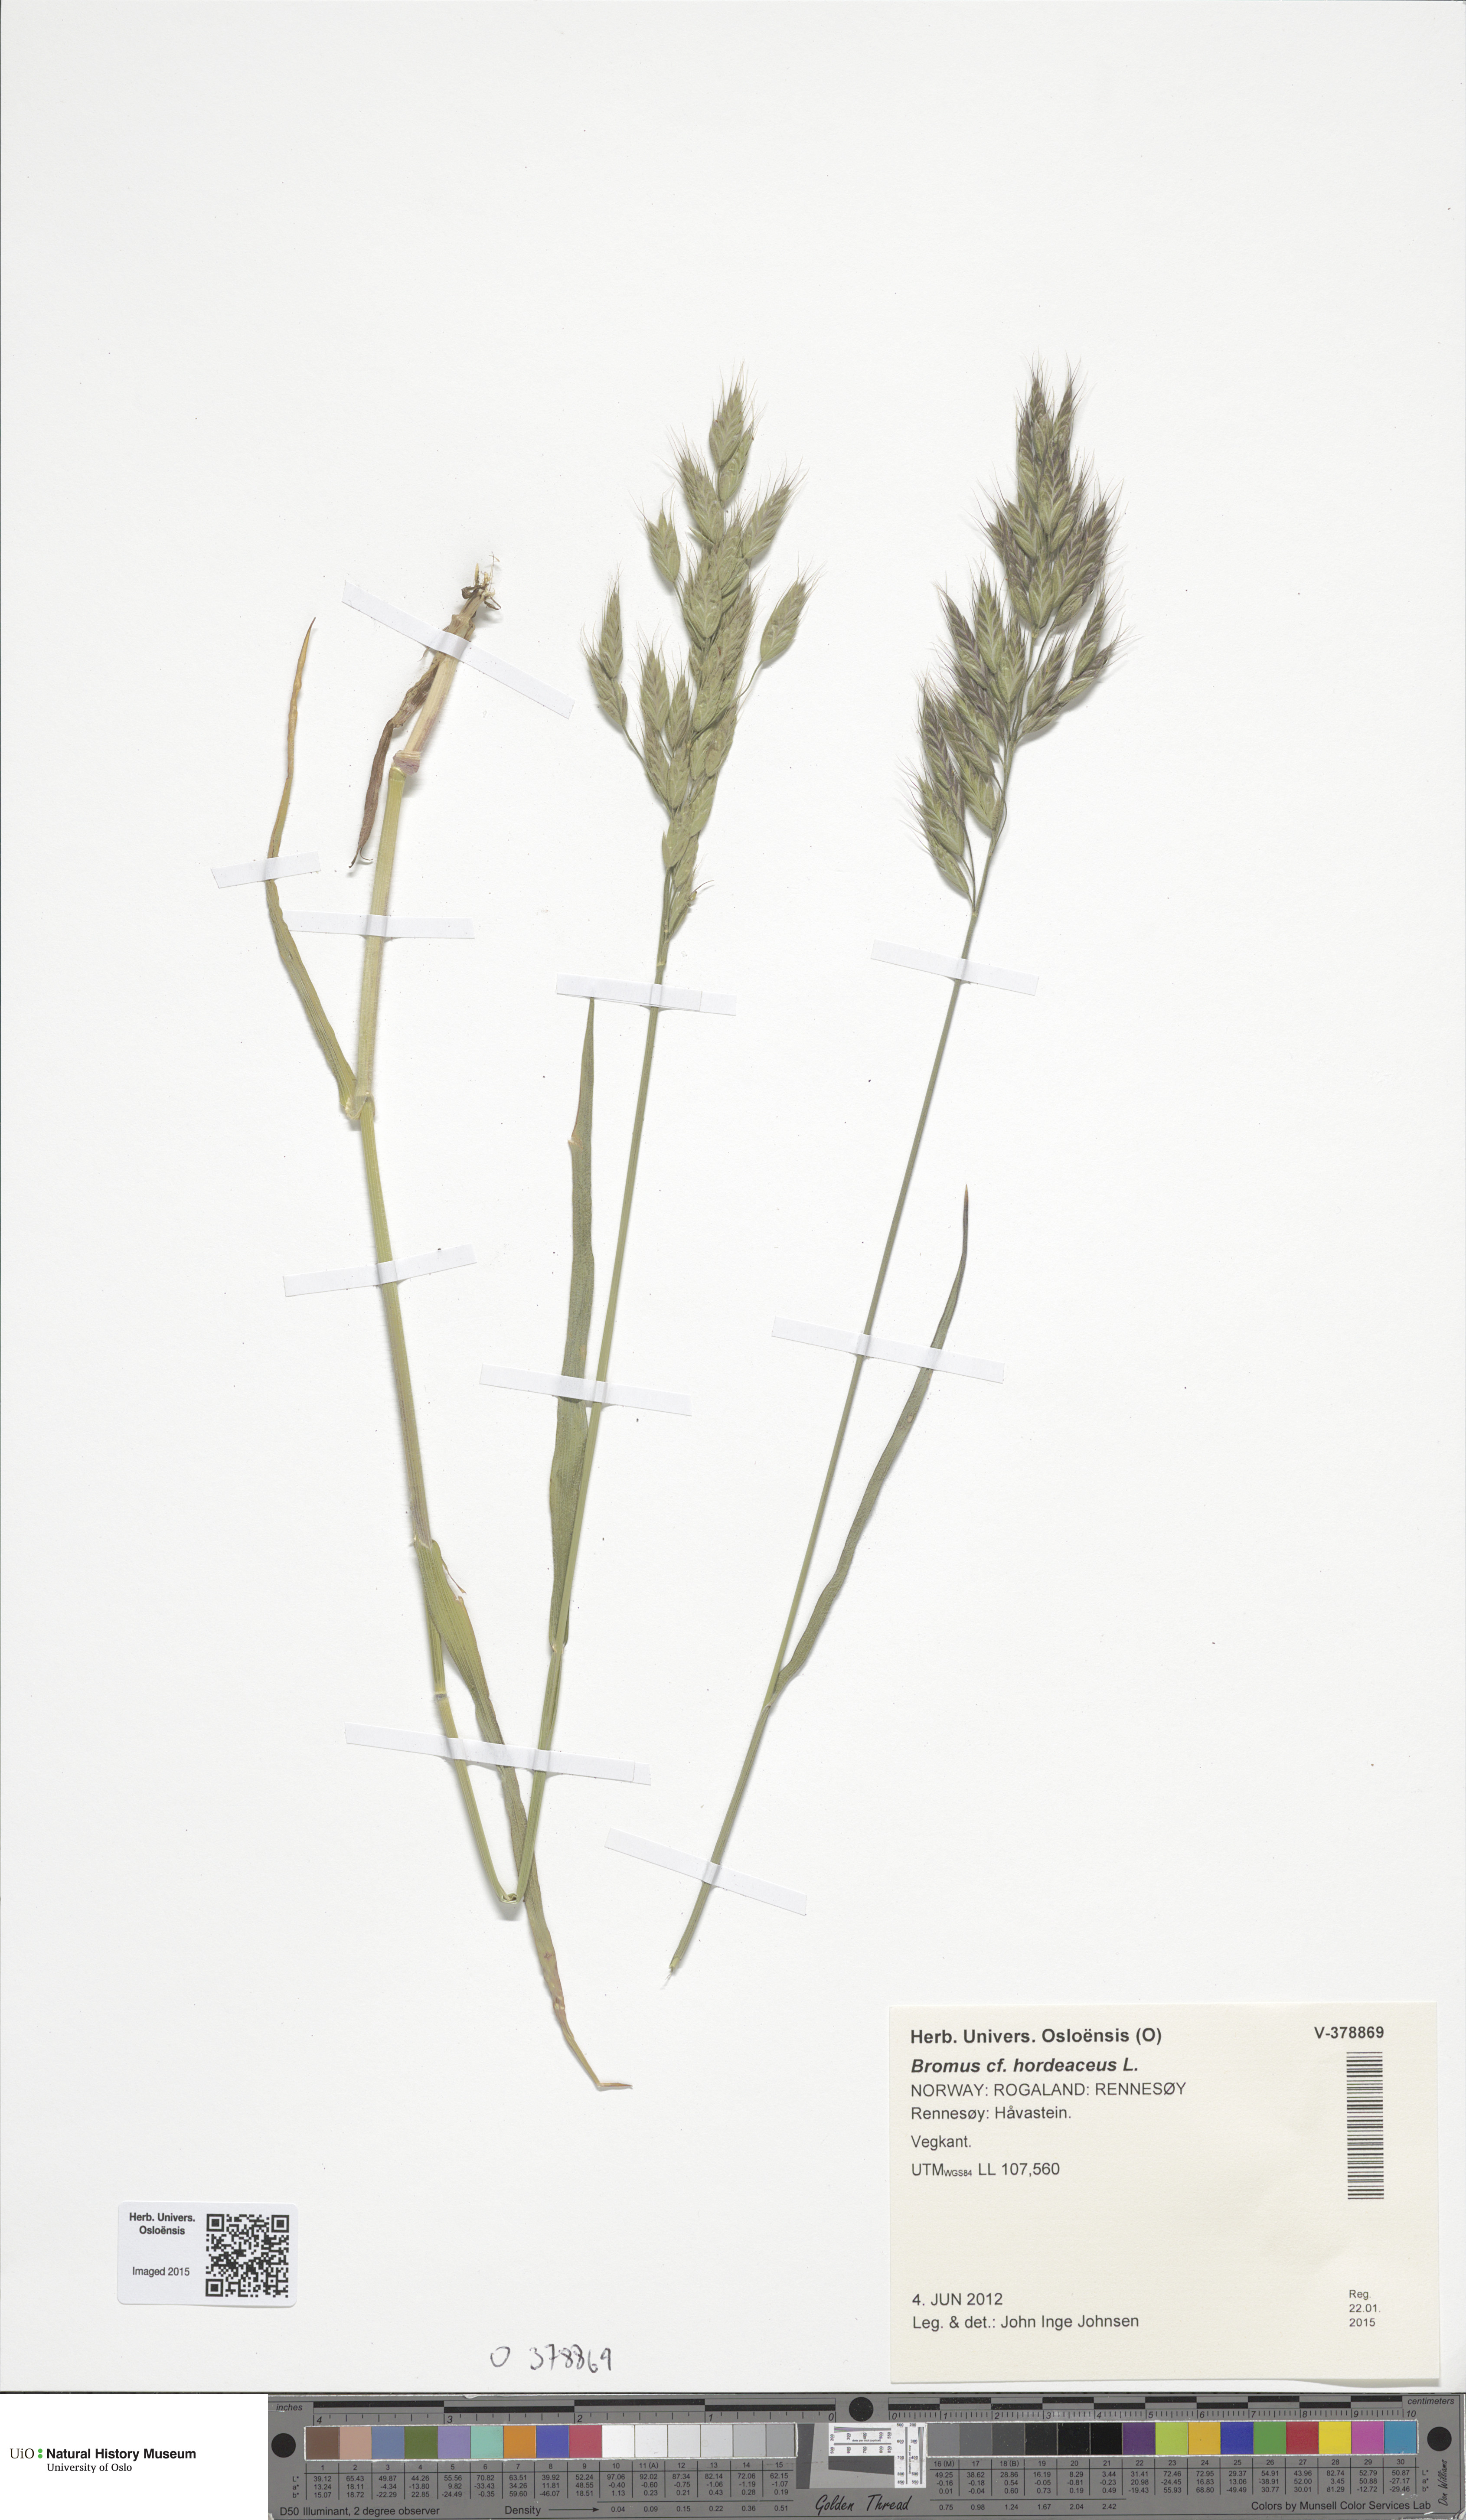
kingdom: Plantae
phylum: Tracheophyta
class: Liliopsida
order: Poales
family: Poaceae
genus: Bromus
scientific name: Bromus hordeaceus
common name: Soft brome
